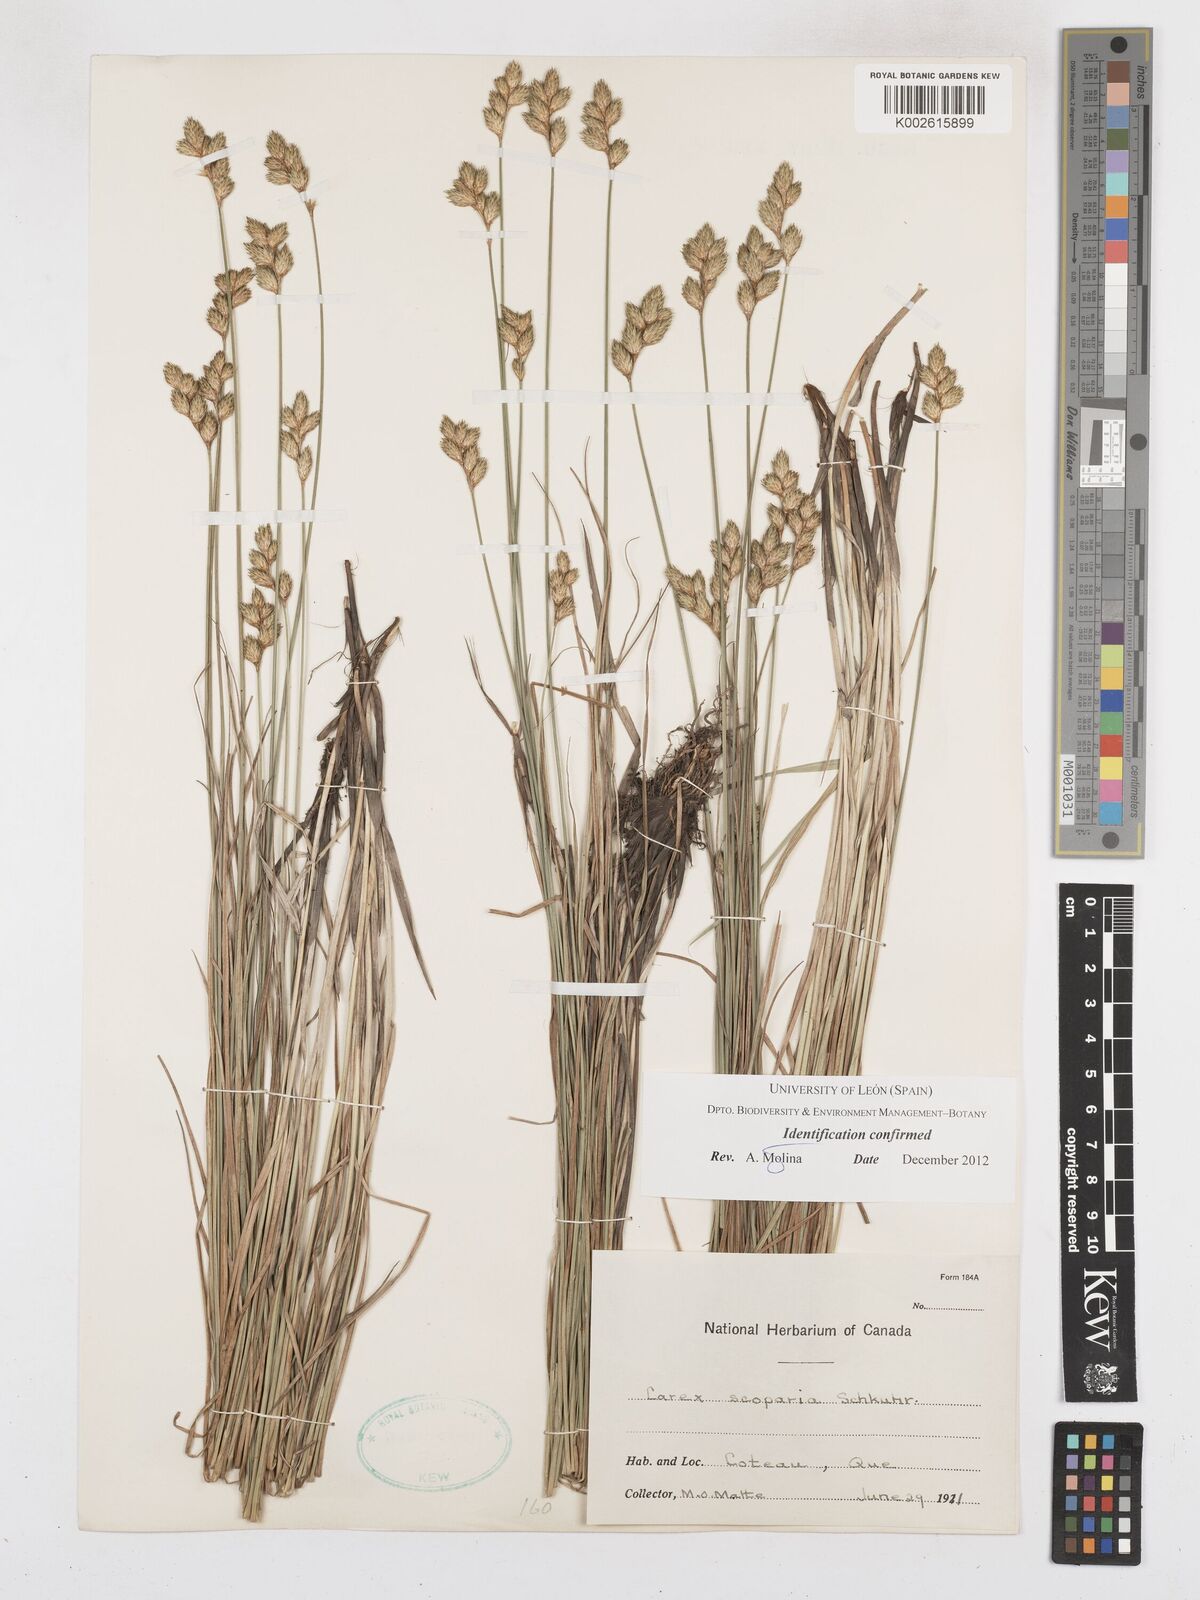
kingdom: Plantae
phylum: Tracheophyta
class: Liliopsida
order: Poales
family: Cyperaceae
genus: Carex
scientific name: Carex scoparia
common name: Broom sedge
